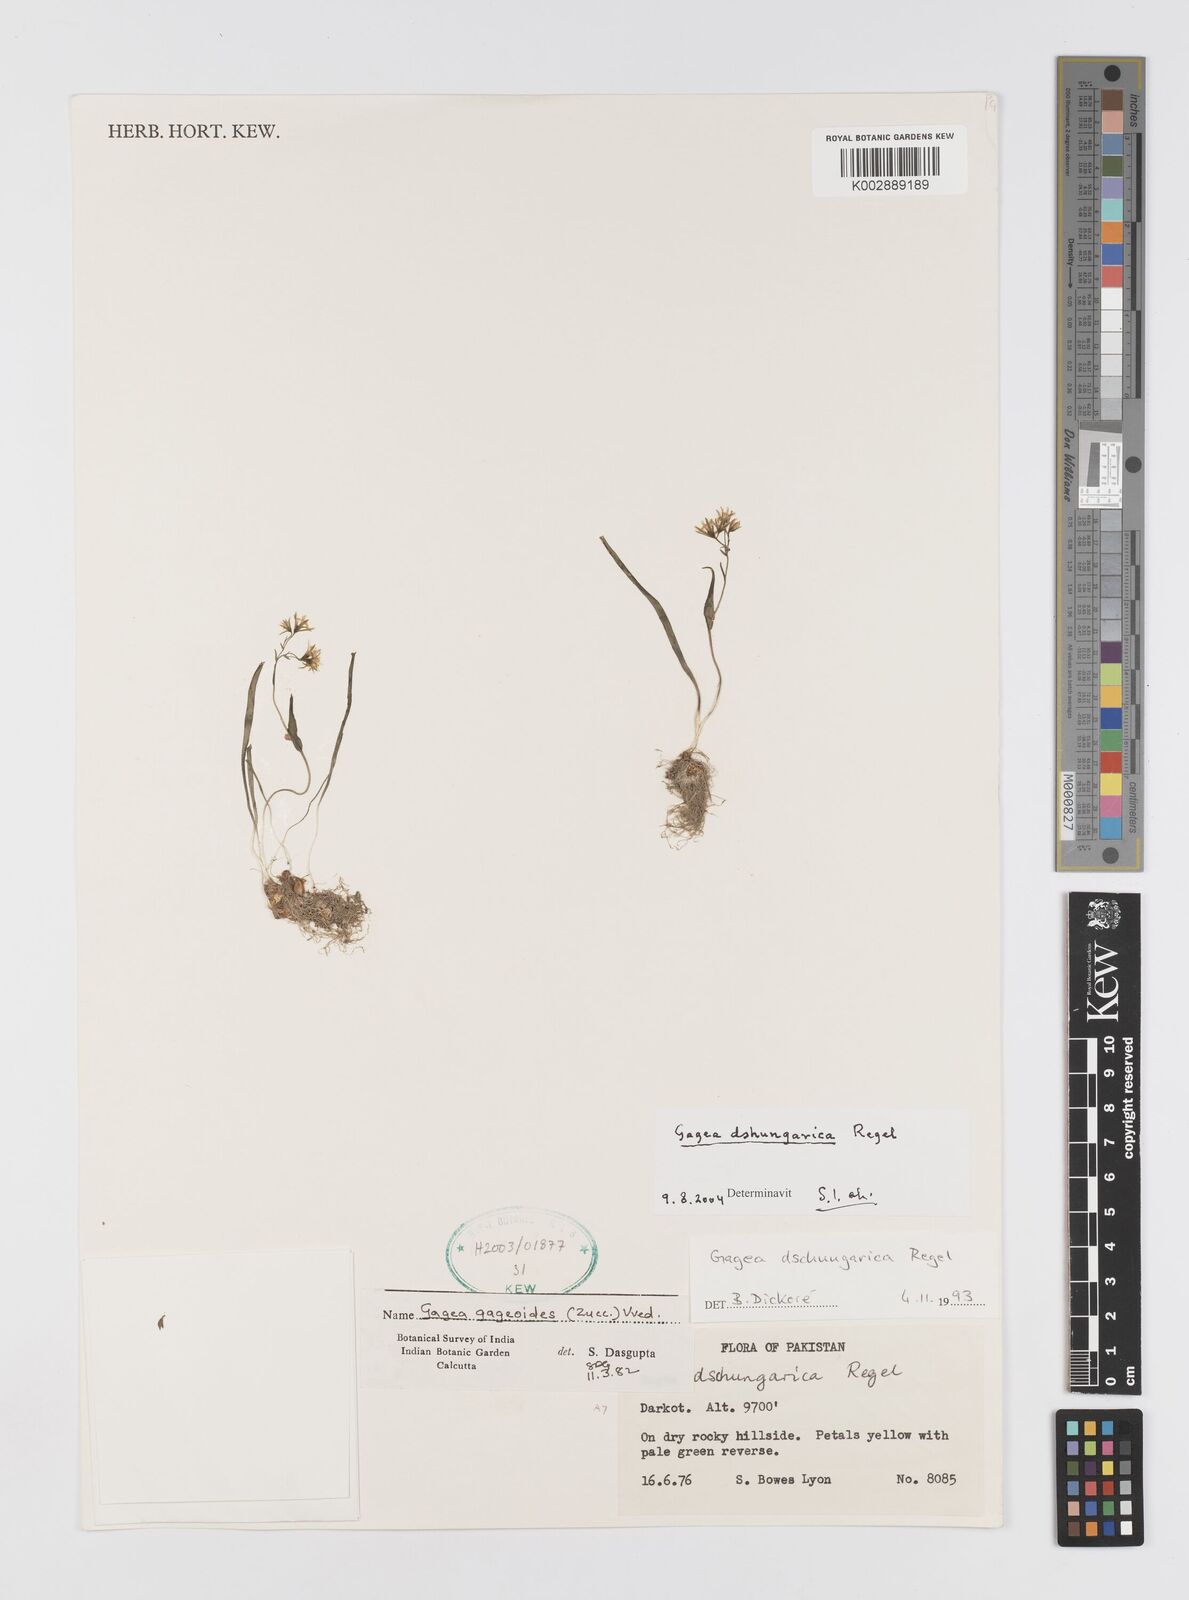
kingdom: Plantae
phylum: Tracheophyta
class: Liliopsida
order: Liliales
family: Liliaceae
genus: Gagea
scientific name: Gagea dschungarica
